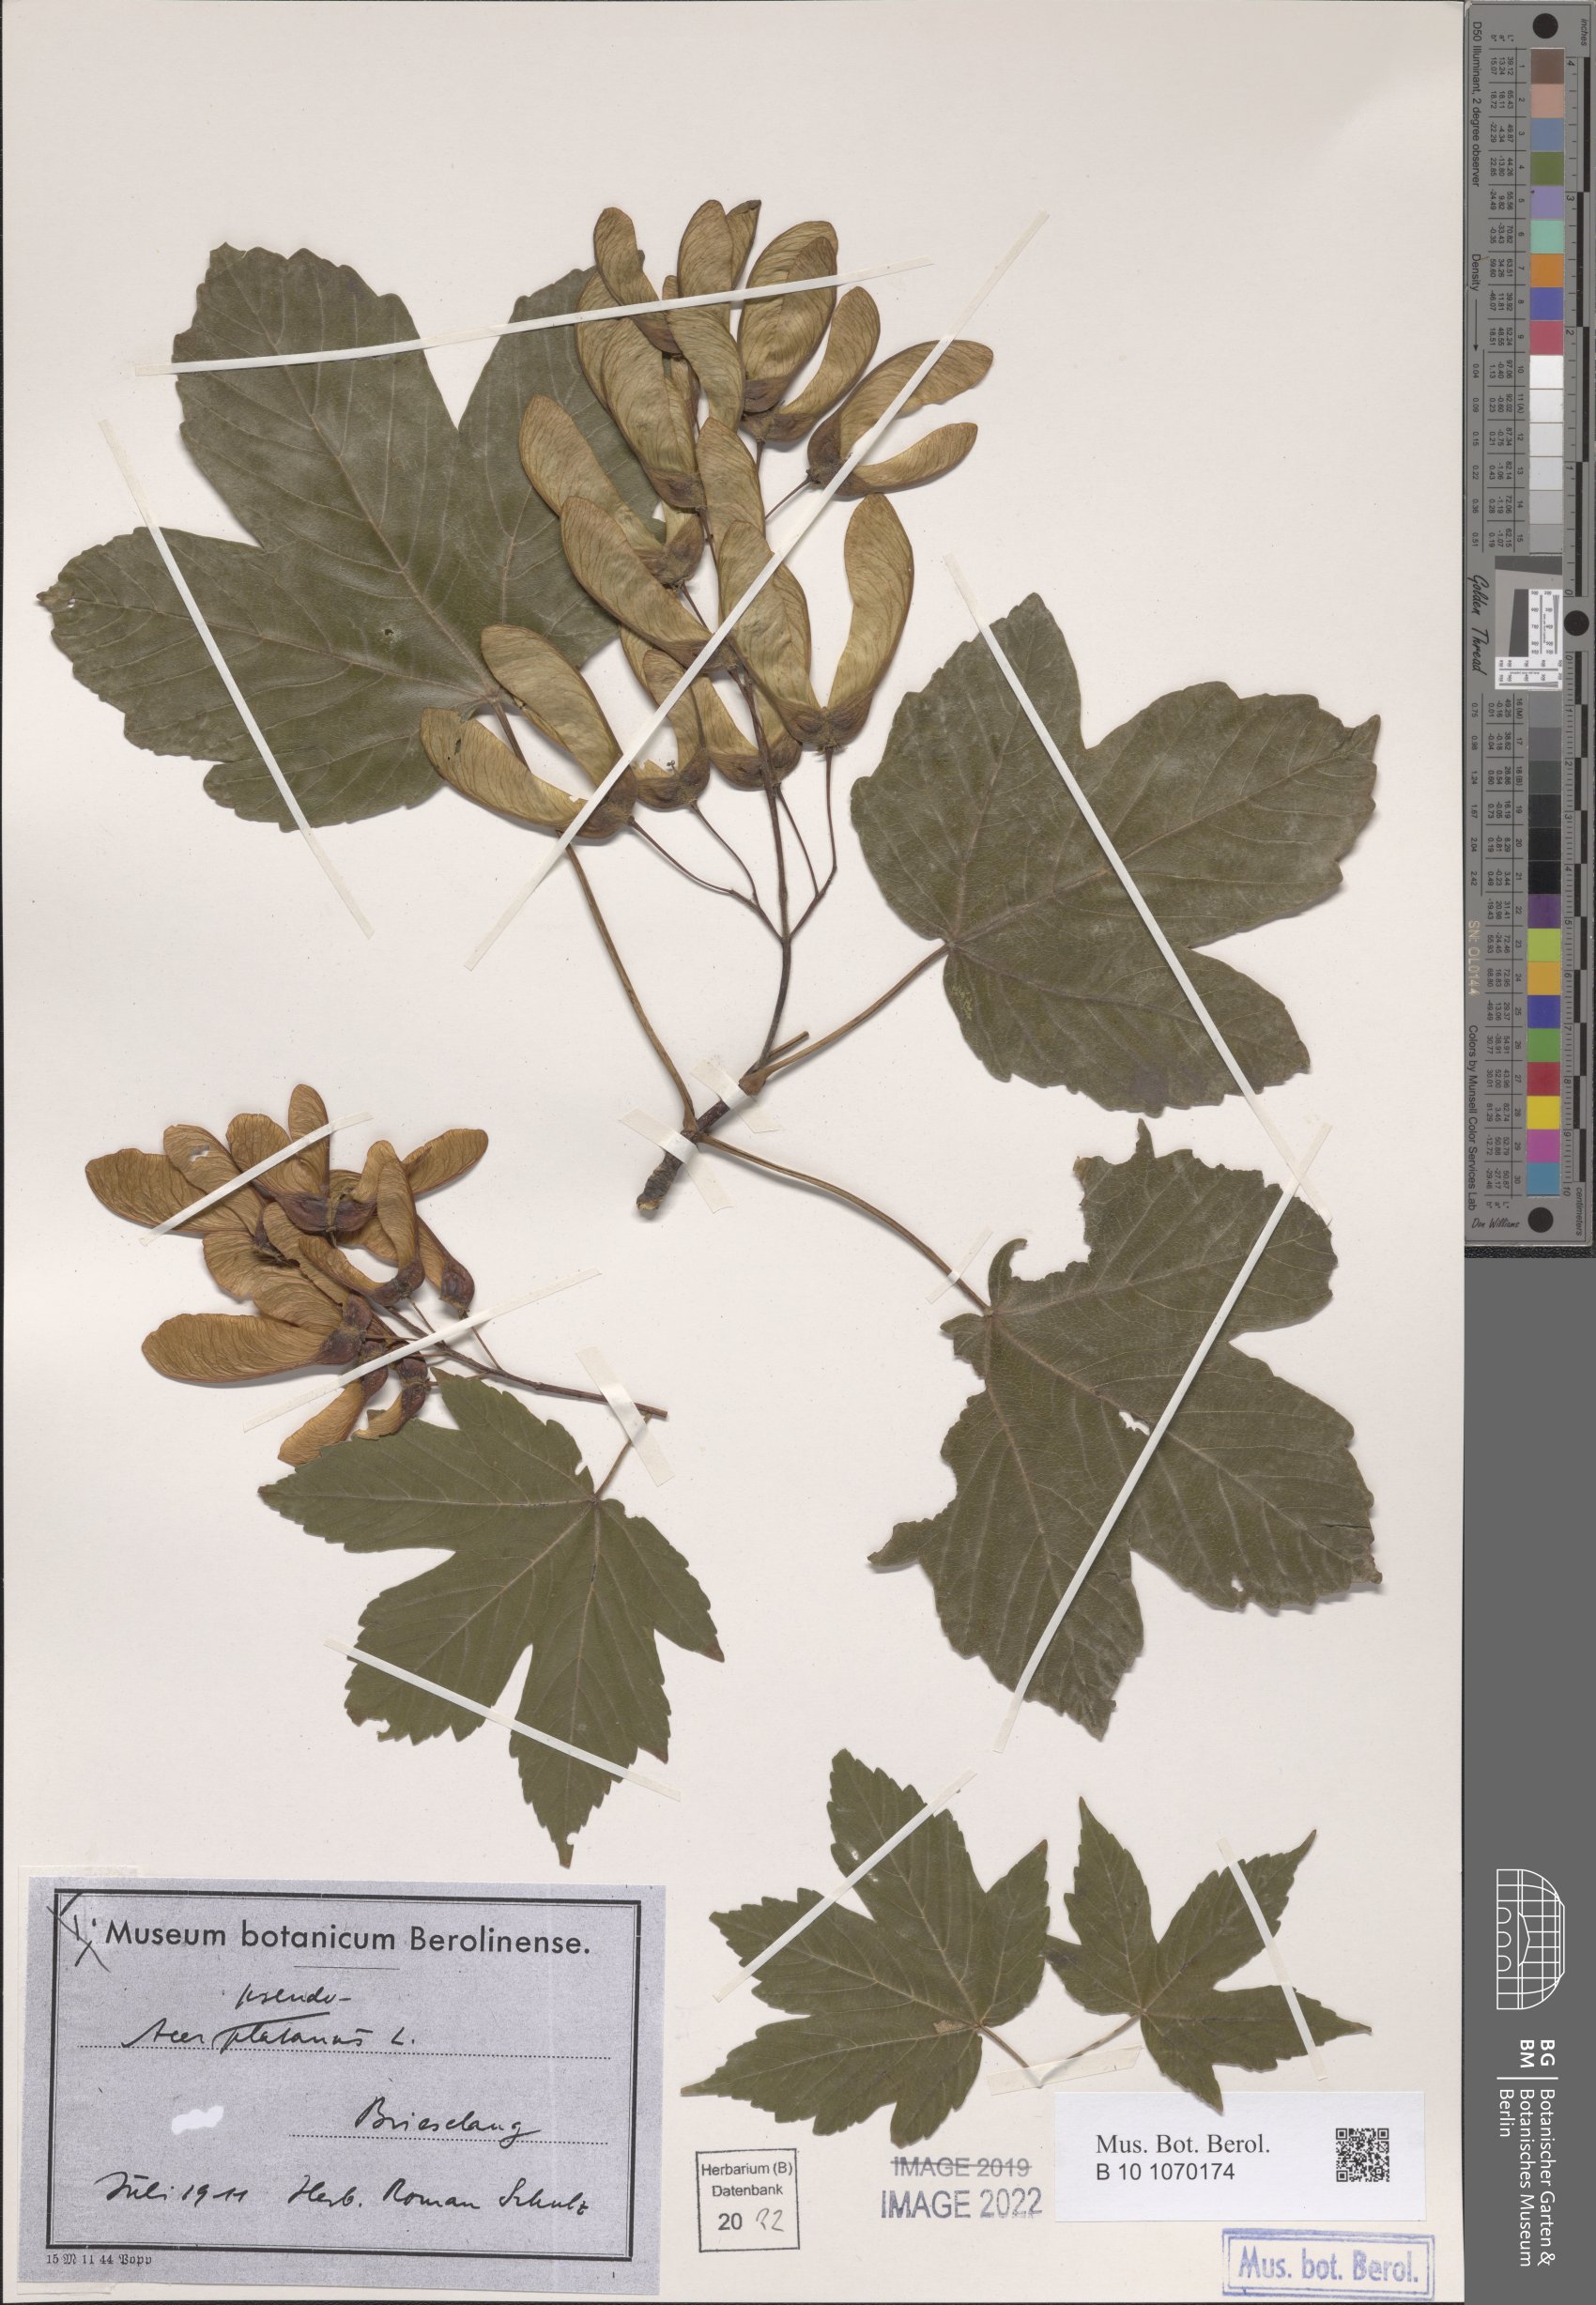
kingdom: Plantae
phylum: Tracheophyta
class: Magnoliopsida
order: Sapindales
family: Sapindaceae
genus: Acer
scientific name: Acer pseudoplatanus
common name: Sycamore
